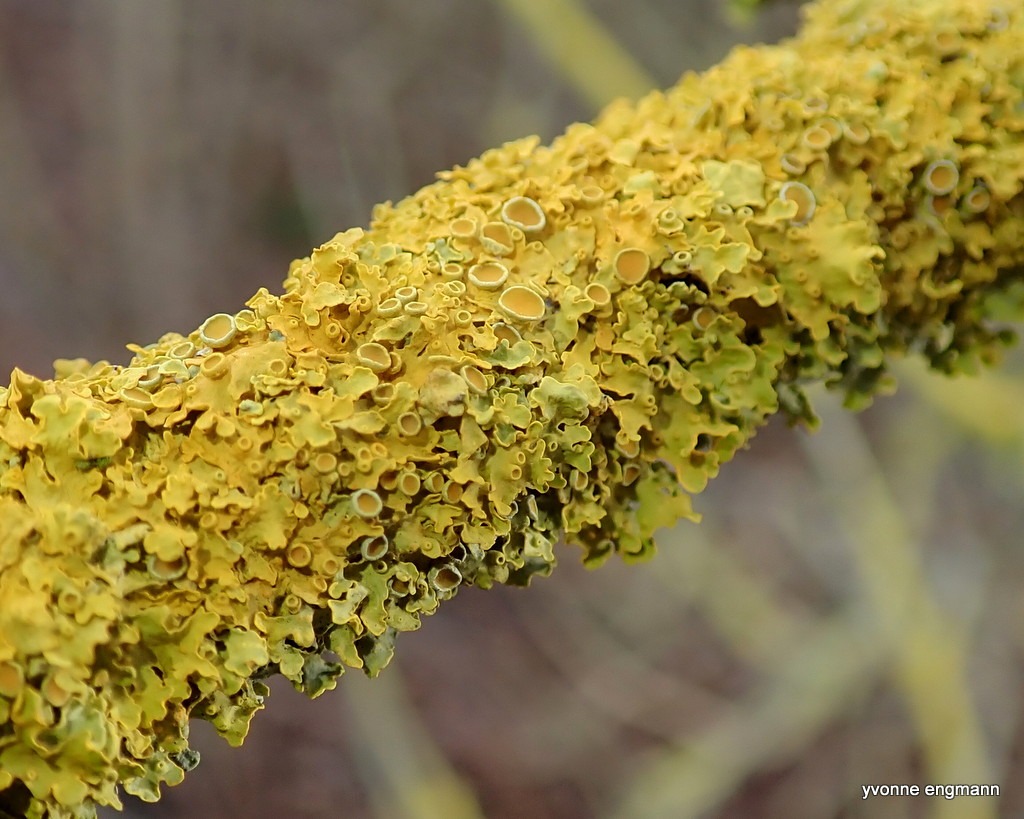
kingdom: Fungi
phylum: Ascomycota
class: Lecanoromycetes
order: Teloschistales
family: Teloschistaceae
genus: Xanthoria
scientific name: Xanthoria parietina
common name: Almindelig væggelav
